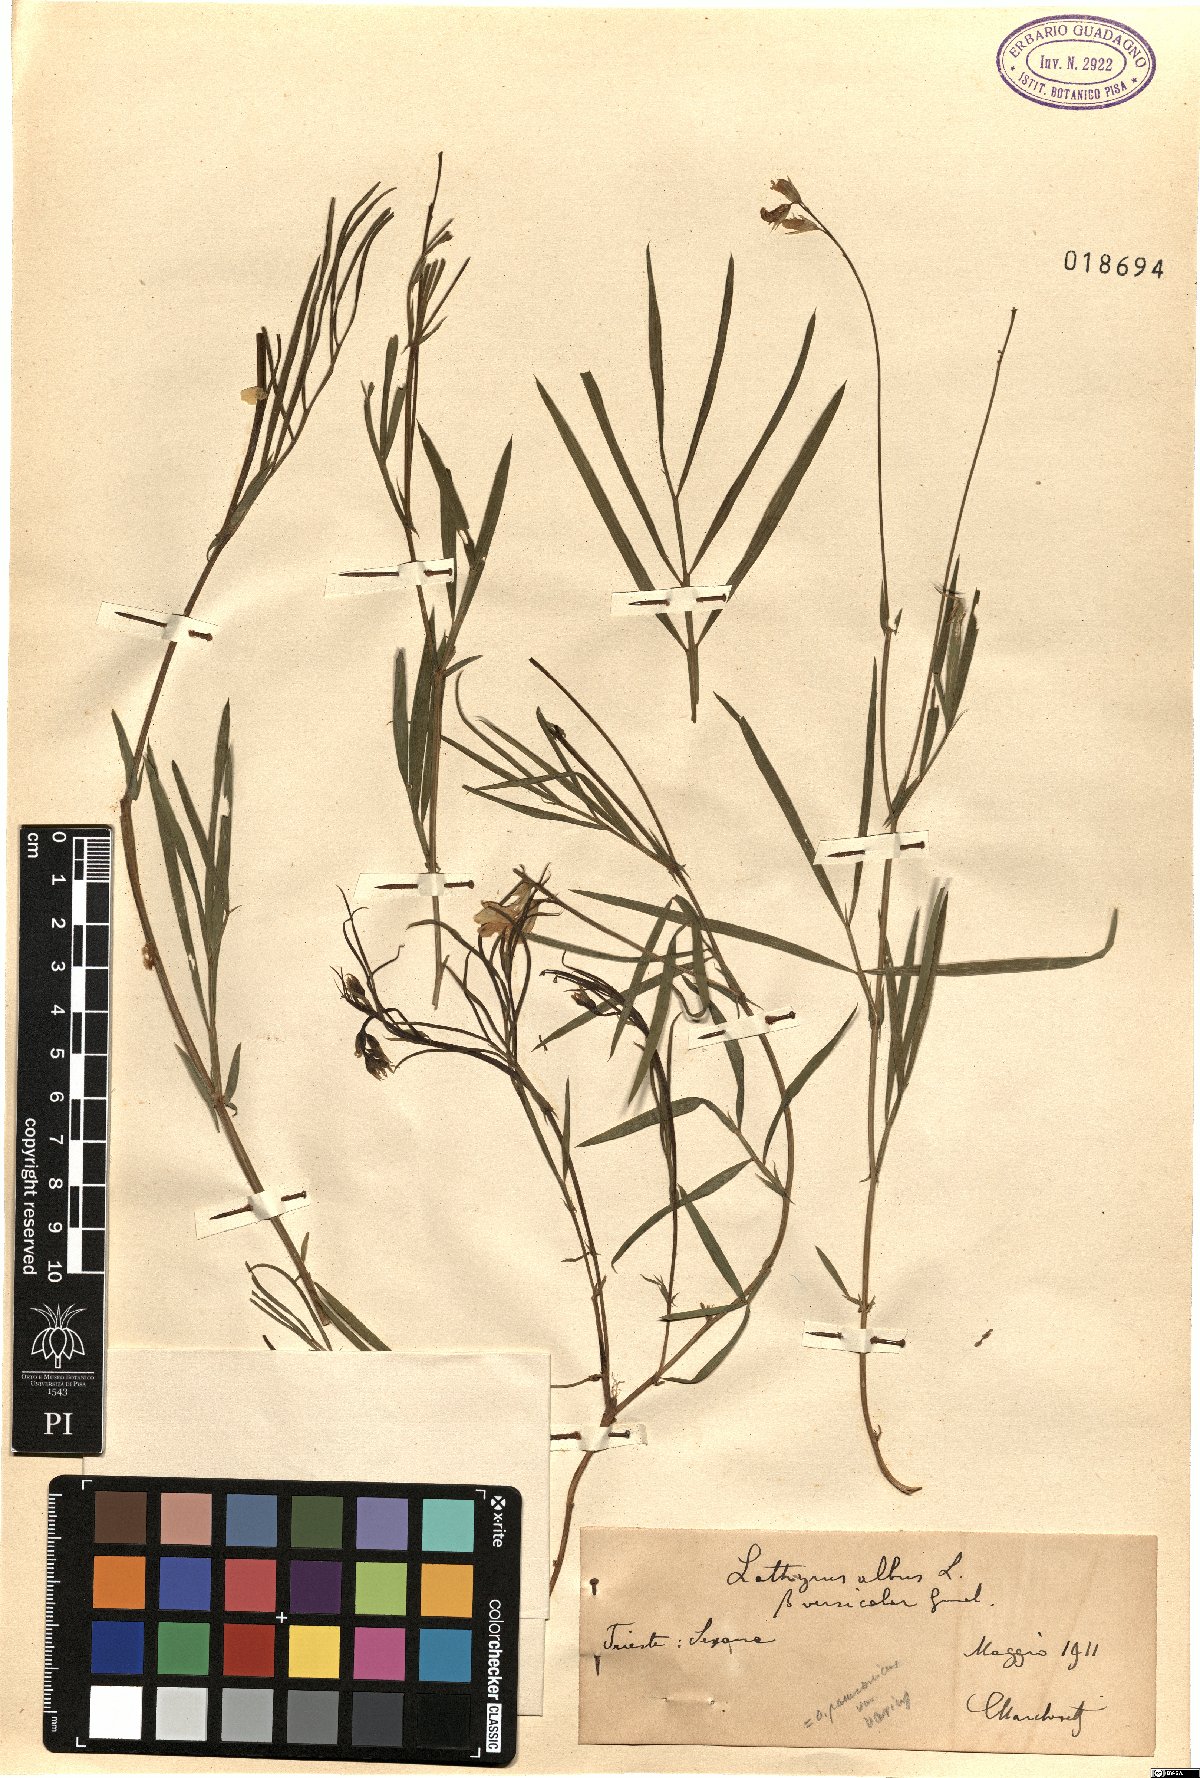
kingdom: Plantae
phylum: Tracheophyta
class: Magnoliopsida
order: Fabales
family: Fabaceae
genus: Lathyrus
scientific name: Lathyrus pannonicus
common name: Pea
